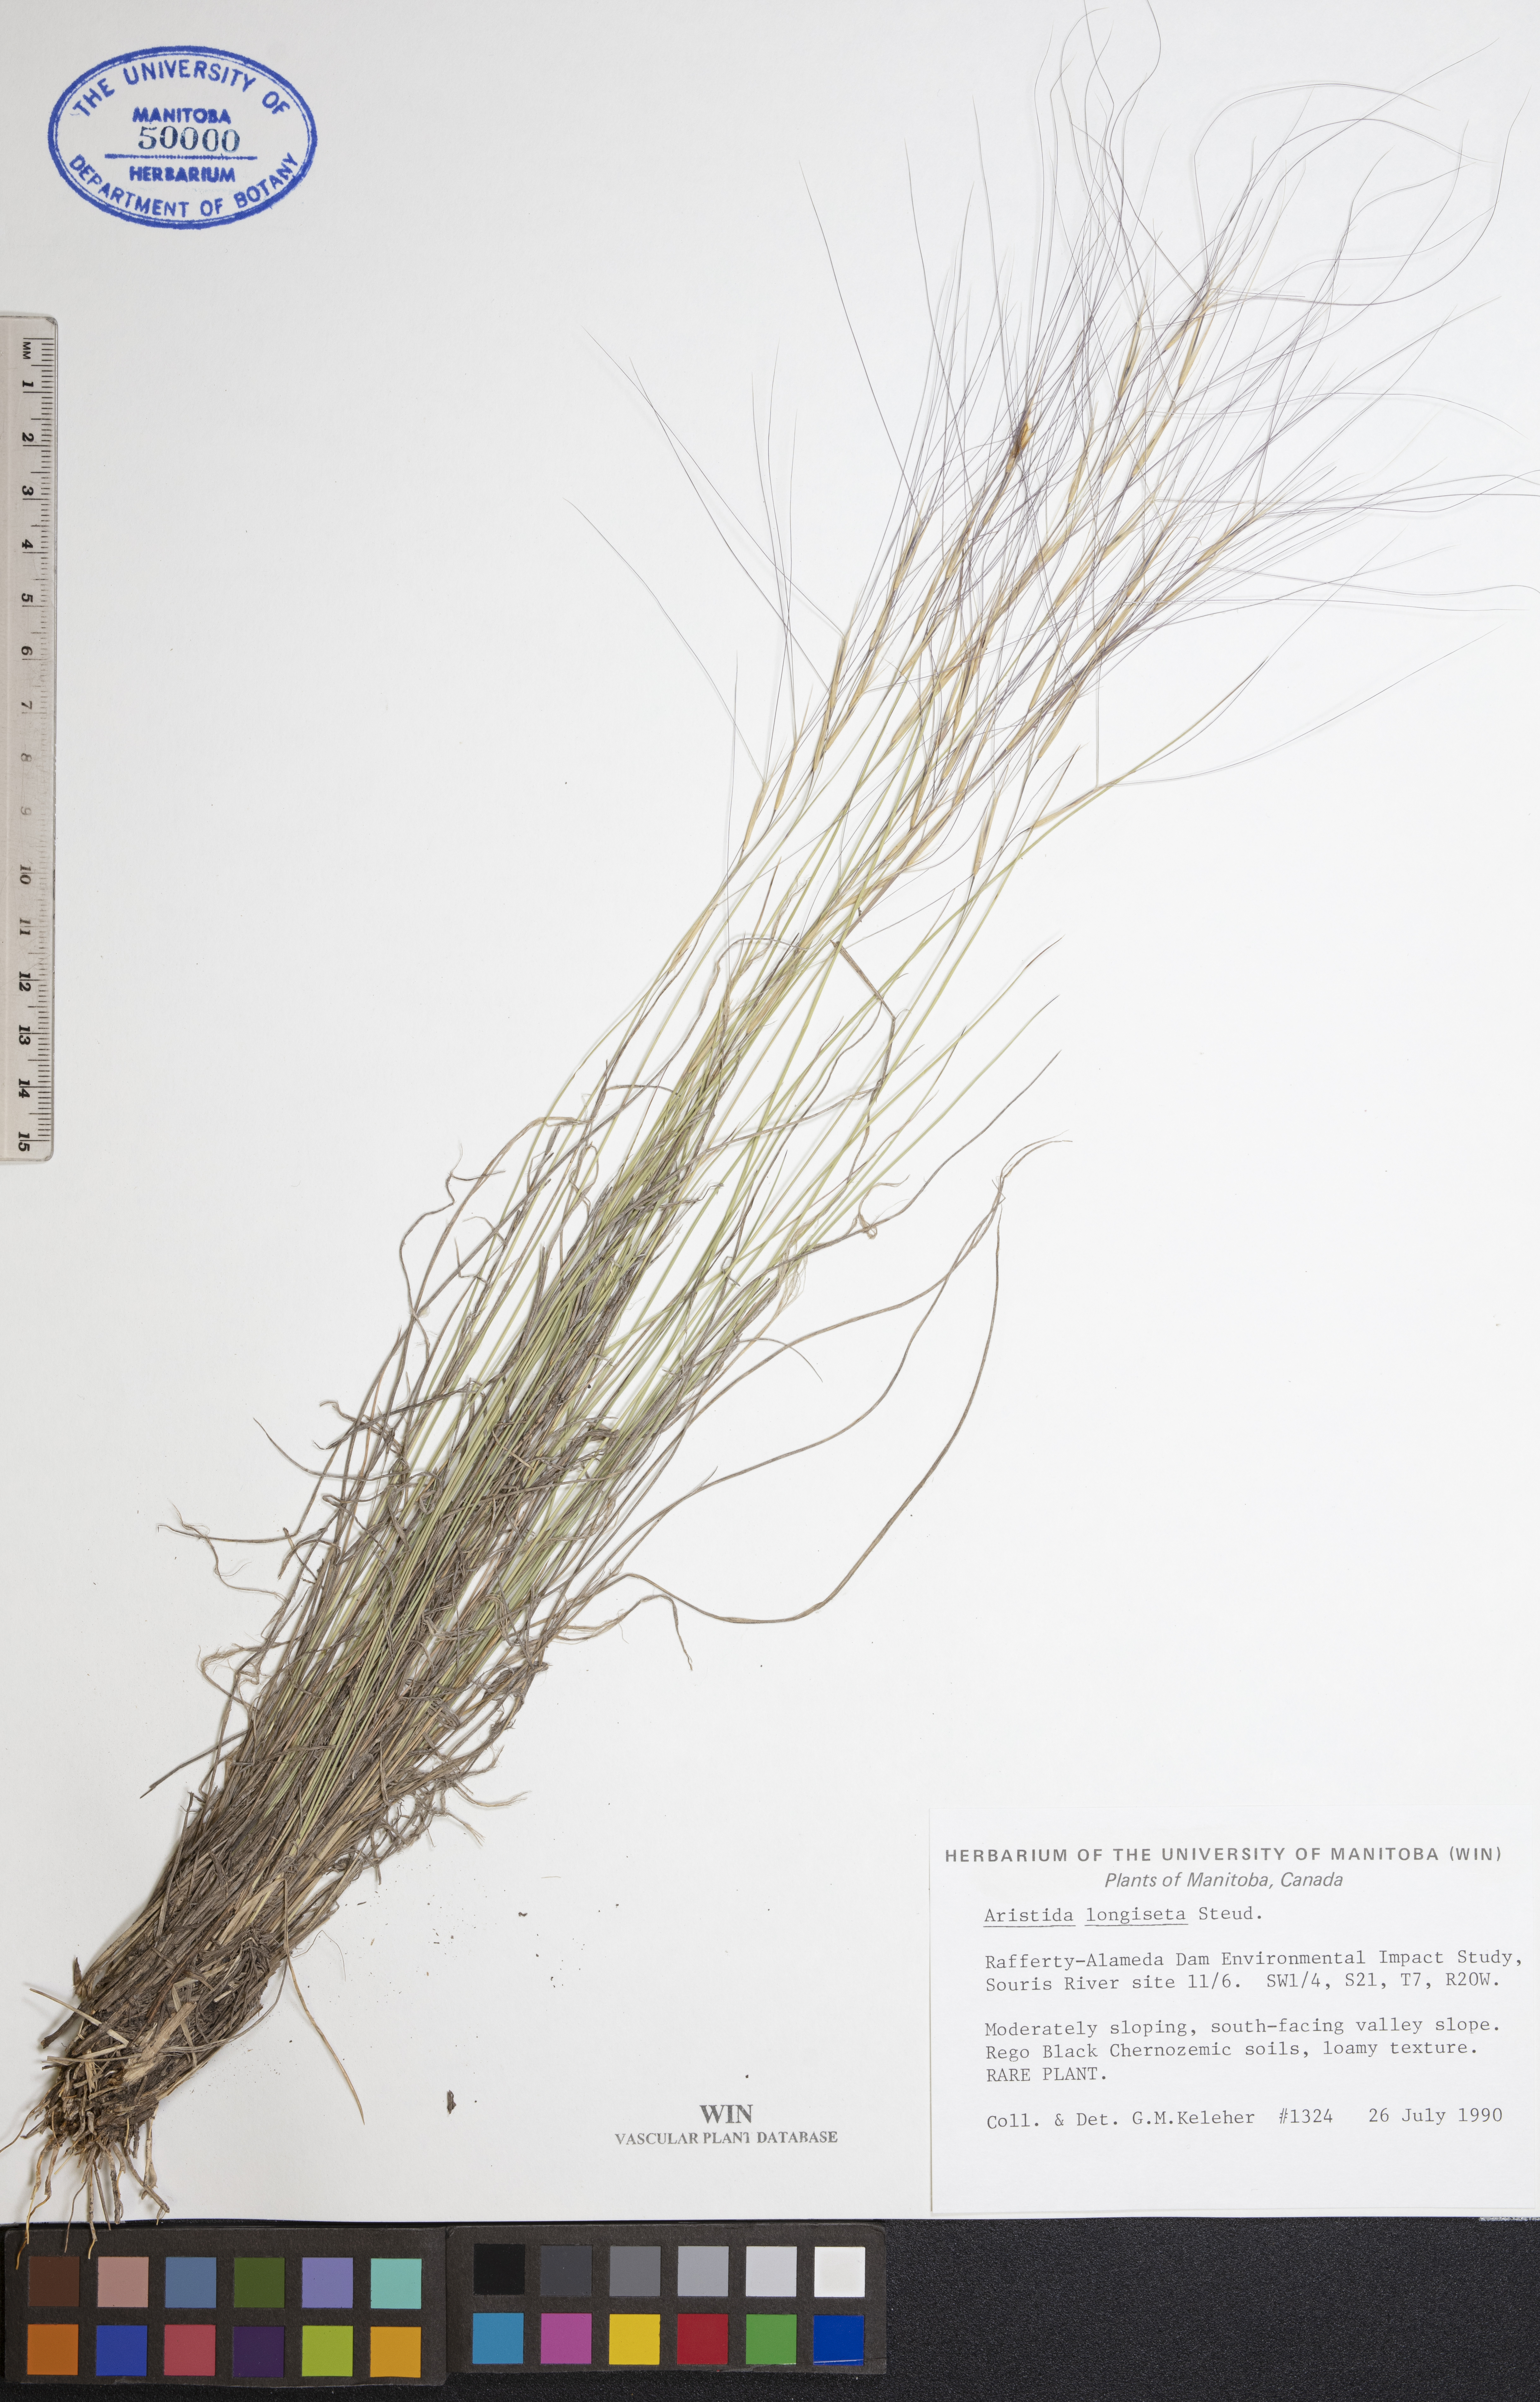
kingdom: Plantae
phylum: Tracheophyta
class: Liliopsida
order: Poales
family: Poaceae
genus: Aristida
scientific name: Aristida longiseta
